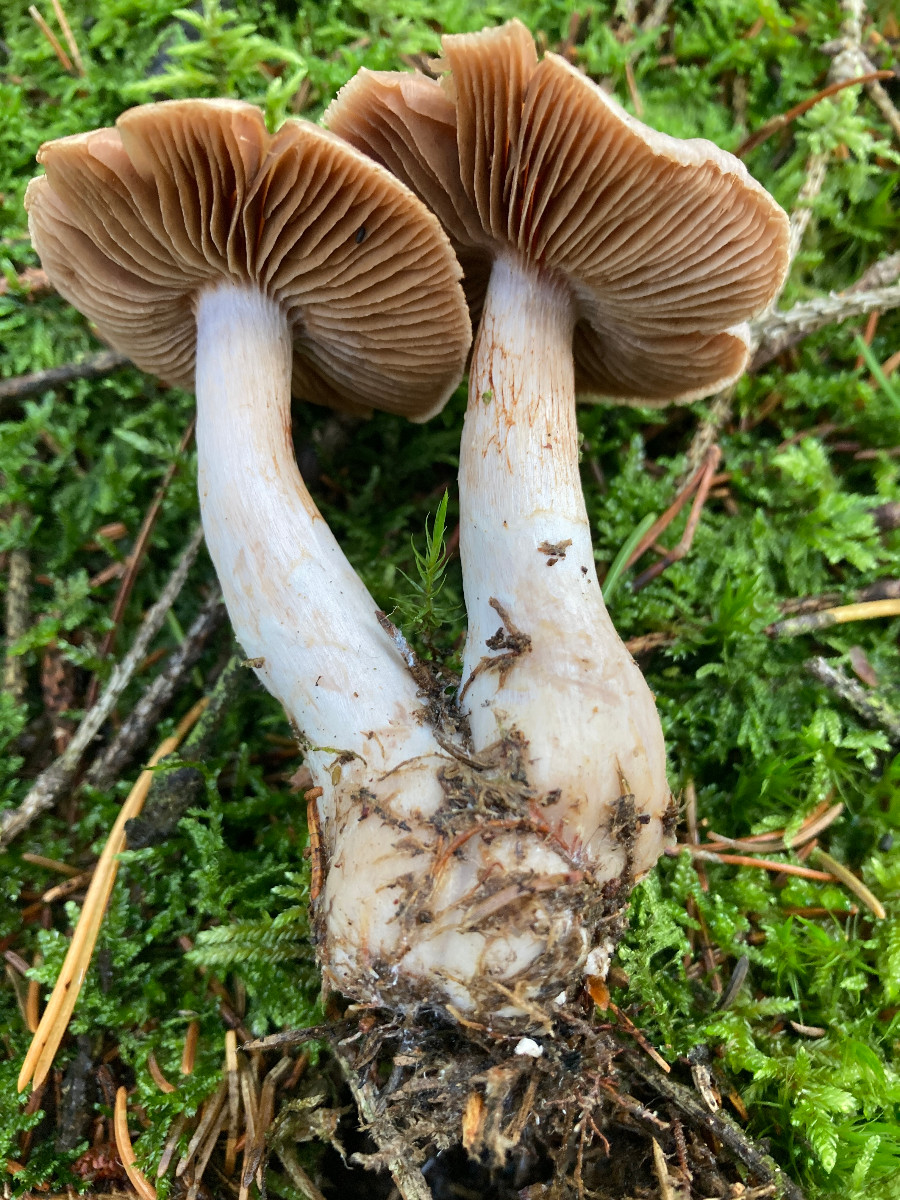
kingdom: Fungi
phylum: Basidiomycota
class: Agaricomycetes
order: Agaricales
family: Cortinariaceae
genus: Cortinarius
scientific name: Cortinarius
